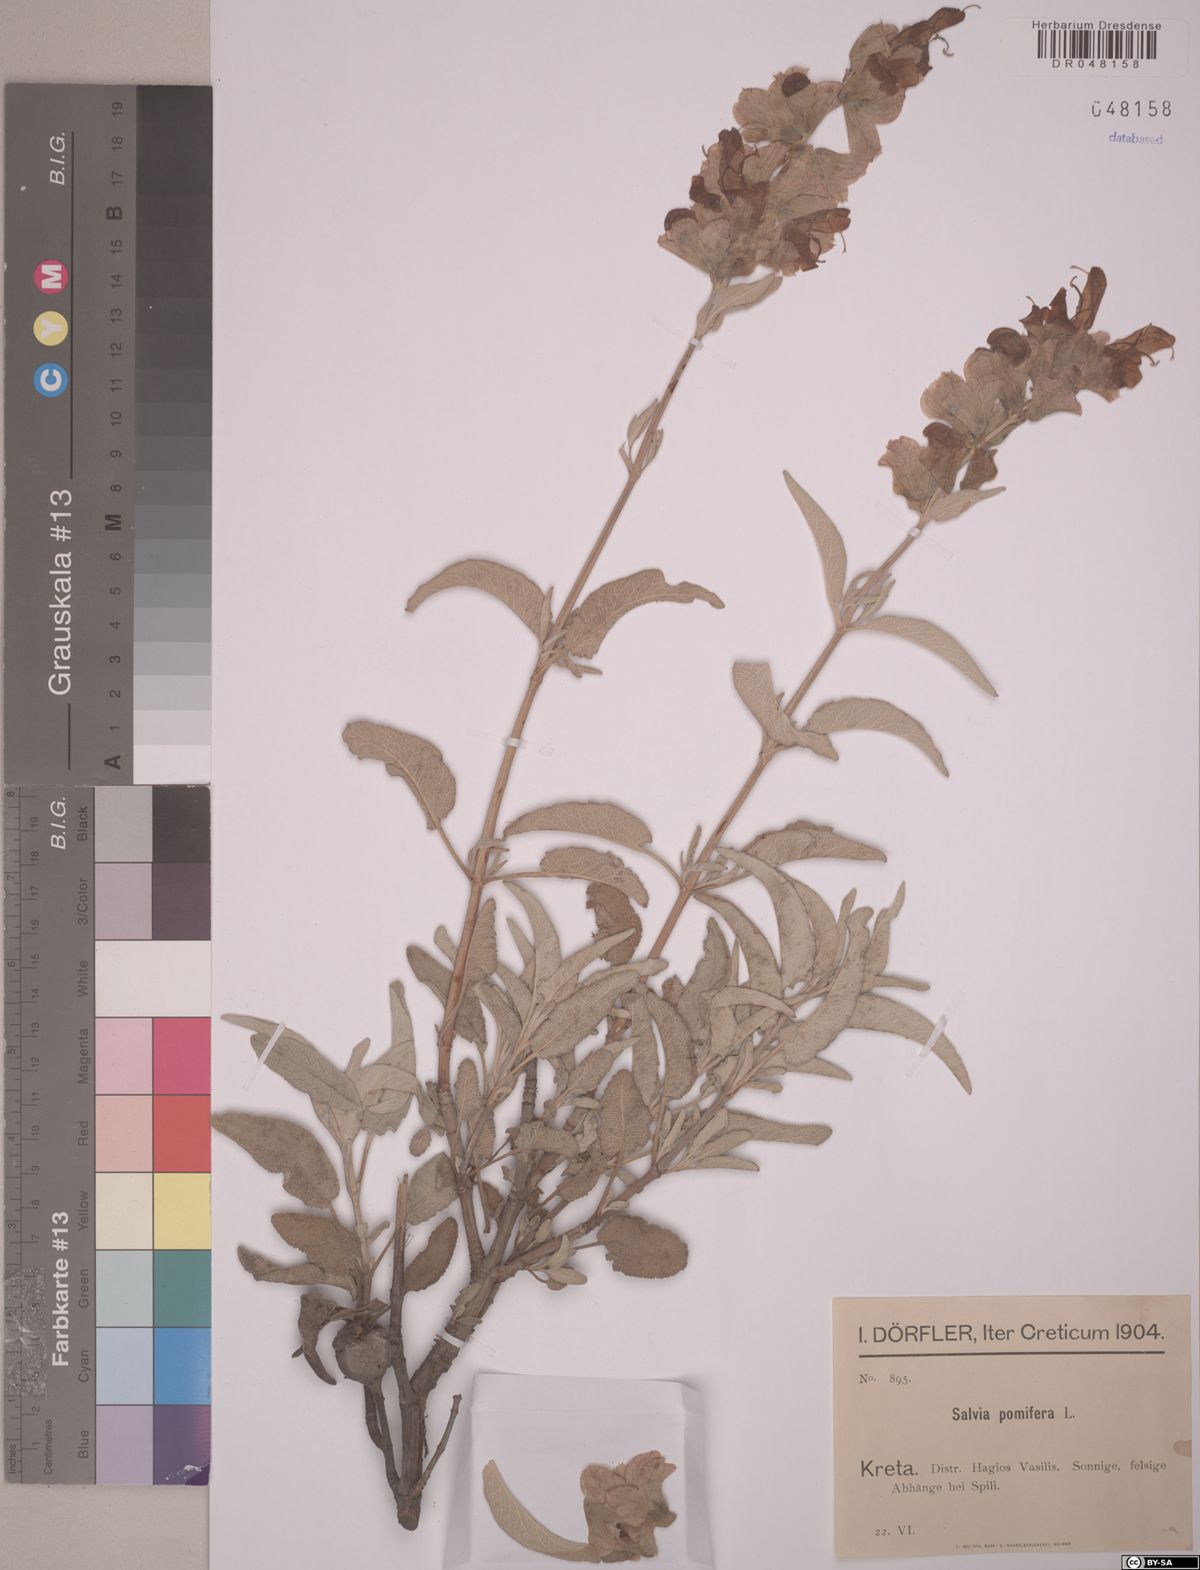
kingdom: Plantae
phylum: Tracheophyta
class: Magnoliopsida
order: Lamiales
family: Lamiaceae
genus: Salvia
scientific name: Salvia pomifera
